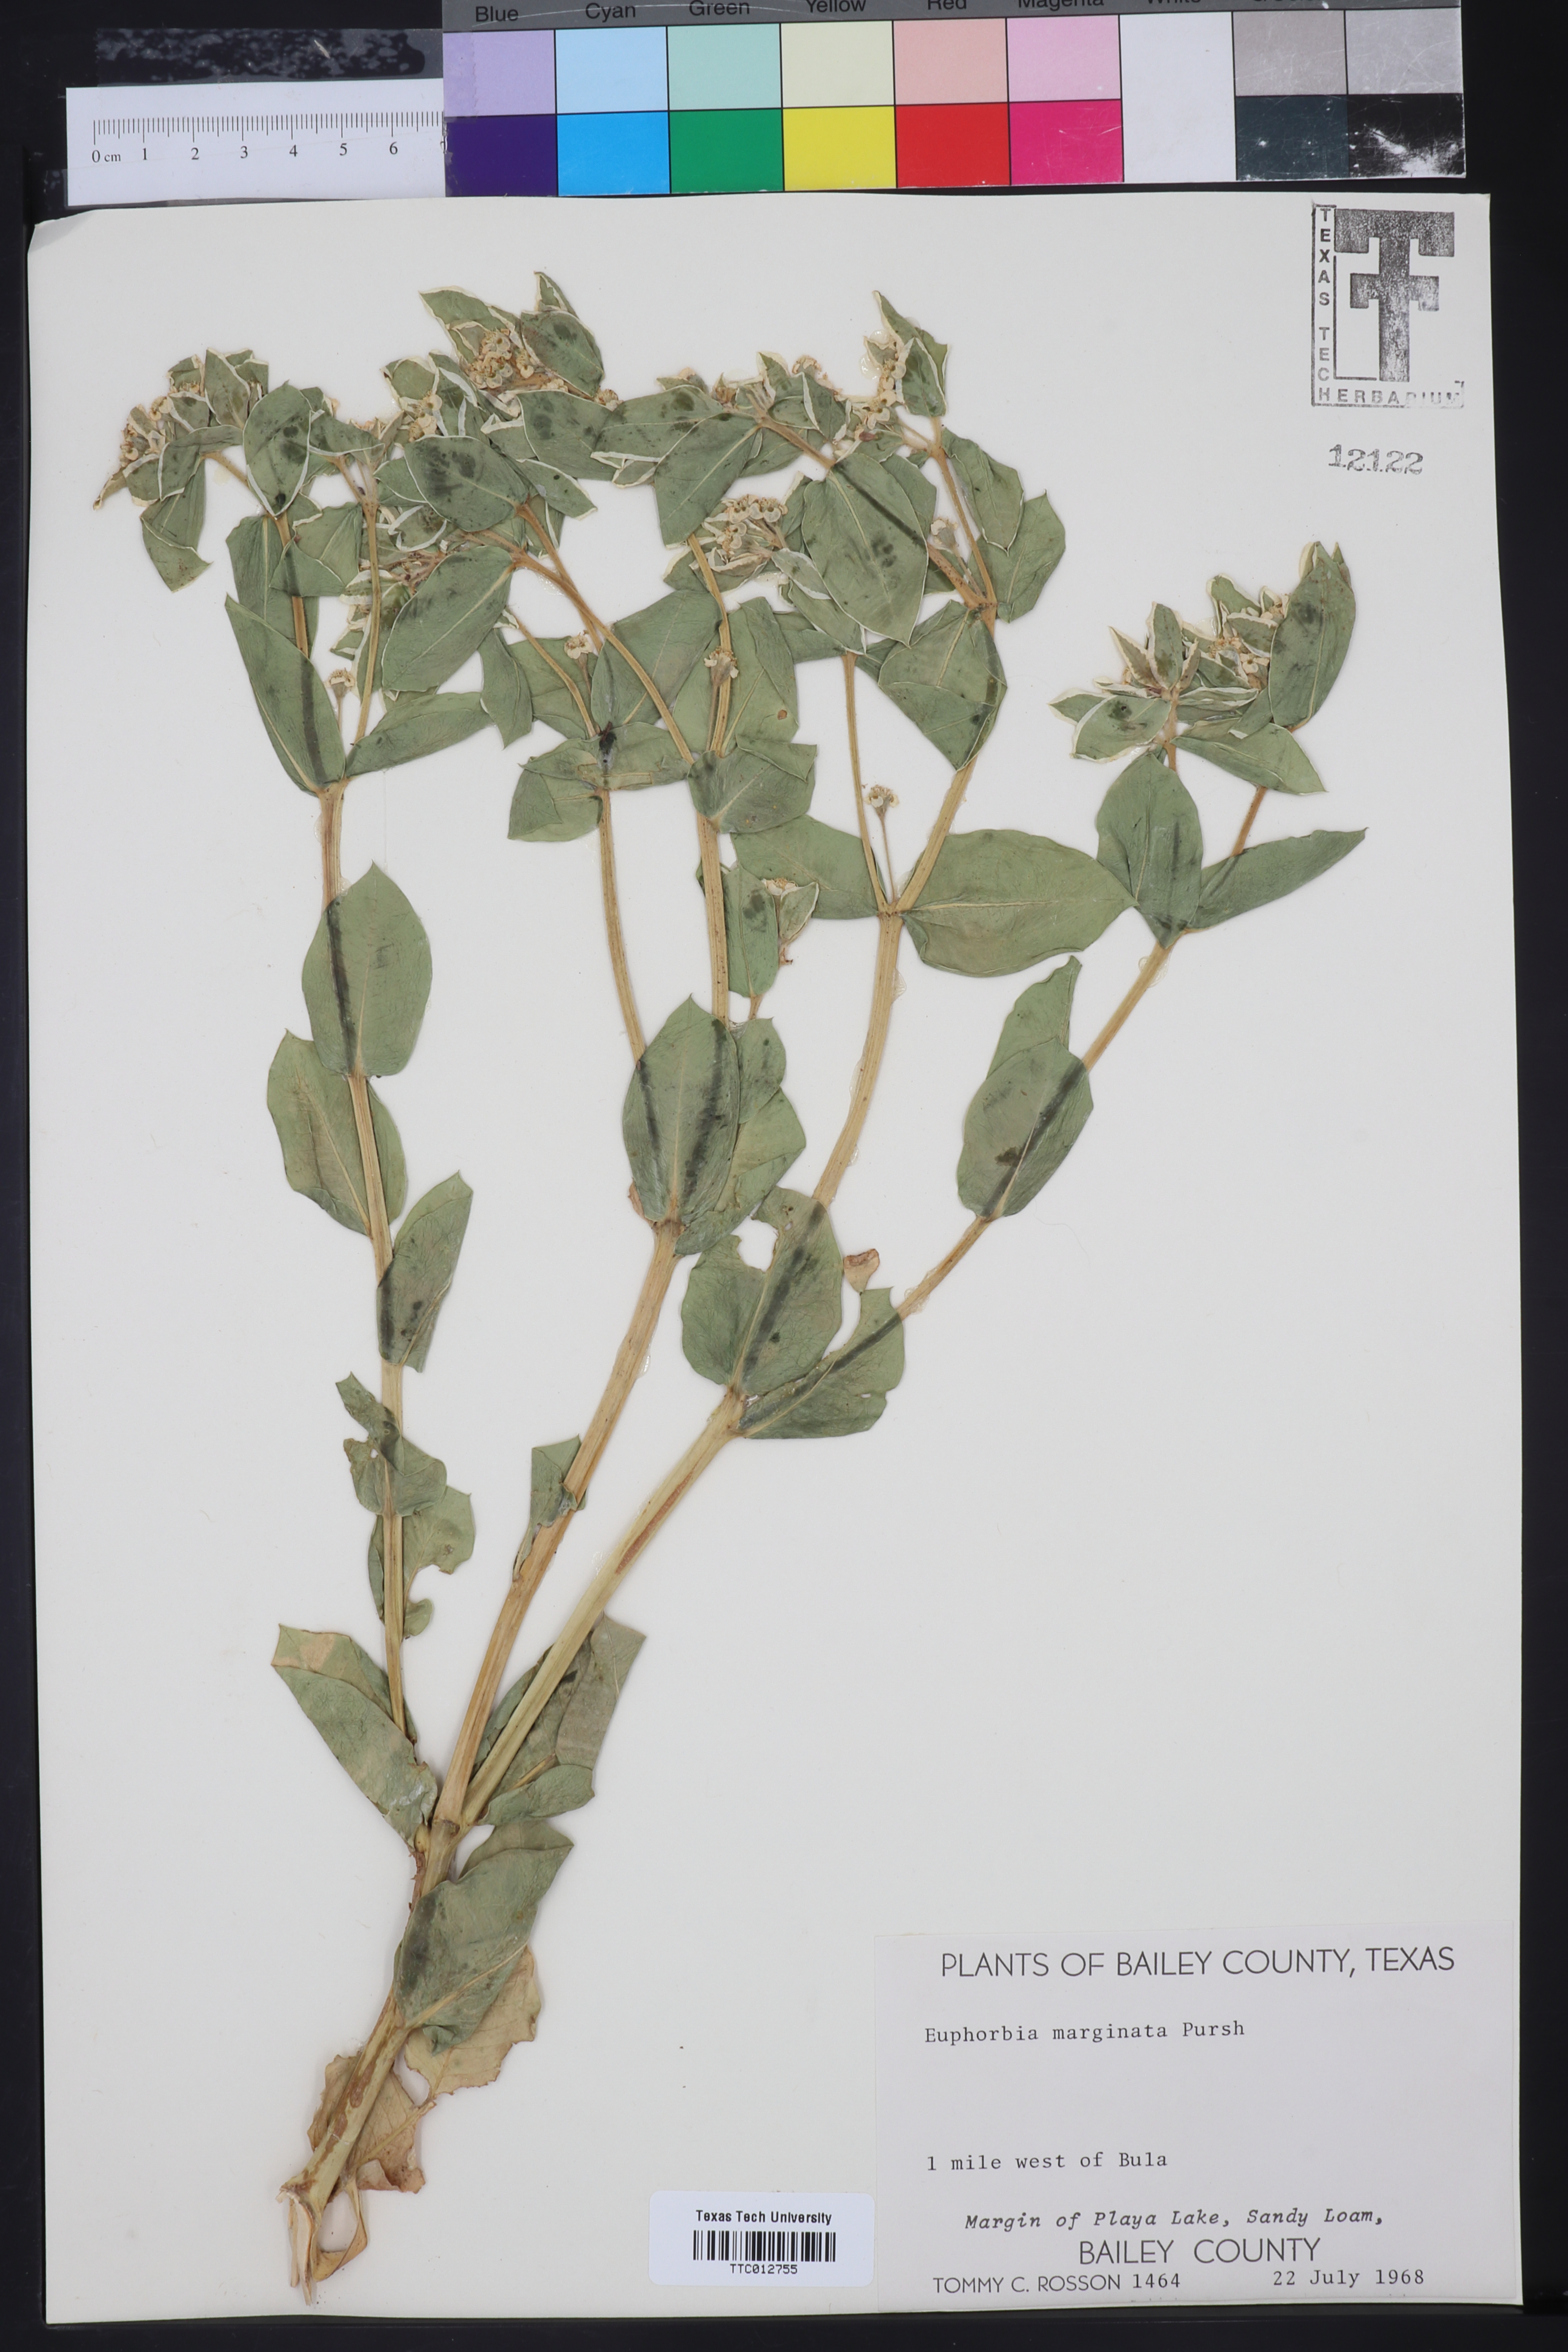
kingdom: Plantae
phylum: Tracheophyta
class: Magnoliopsida
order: Malpighiales
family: Euphorbiaceae
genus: Euphorbia
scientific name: Euphorbia marginata
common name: Ghostweed
